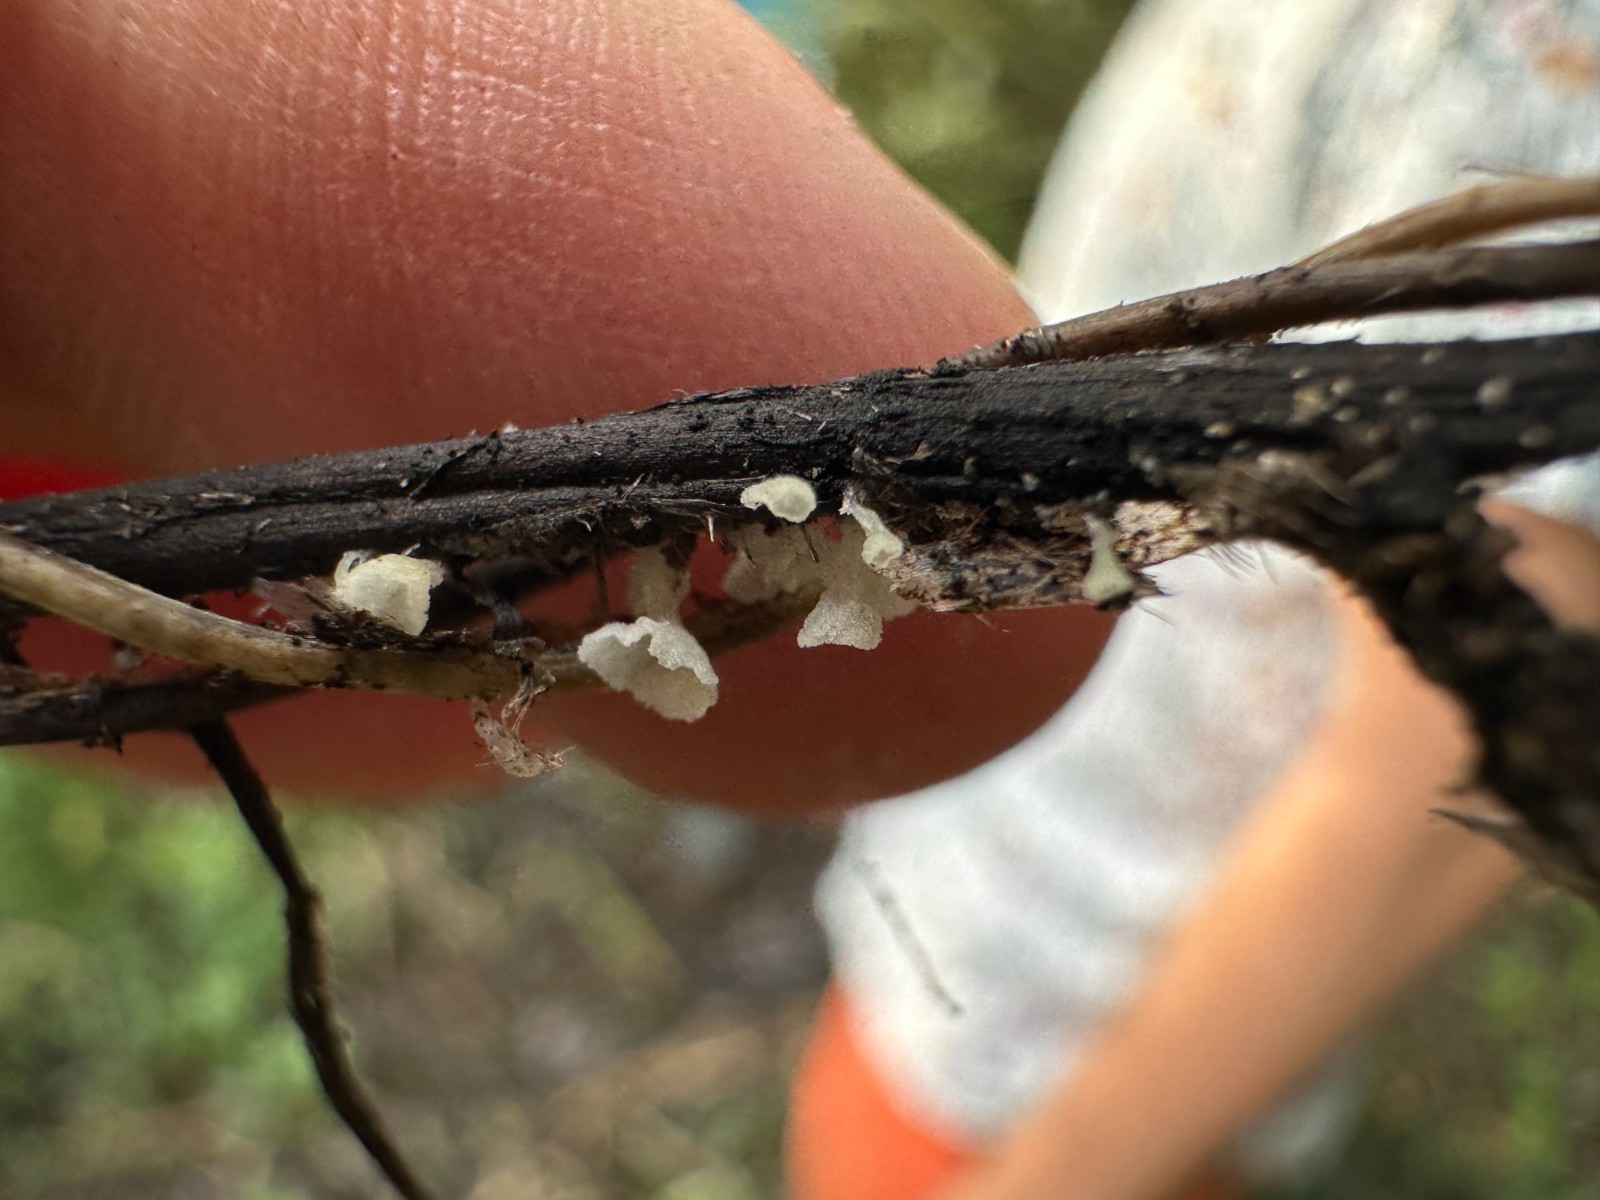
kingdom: Fungi
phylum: Basidiomycota
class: Agaricomycetes
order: Agaricales
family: Marasmiaceae
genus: Calyptella
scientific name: Calyptella capula
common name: hvidlig nældehue
